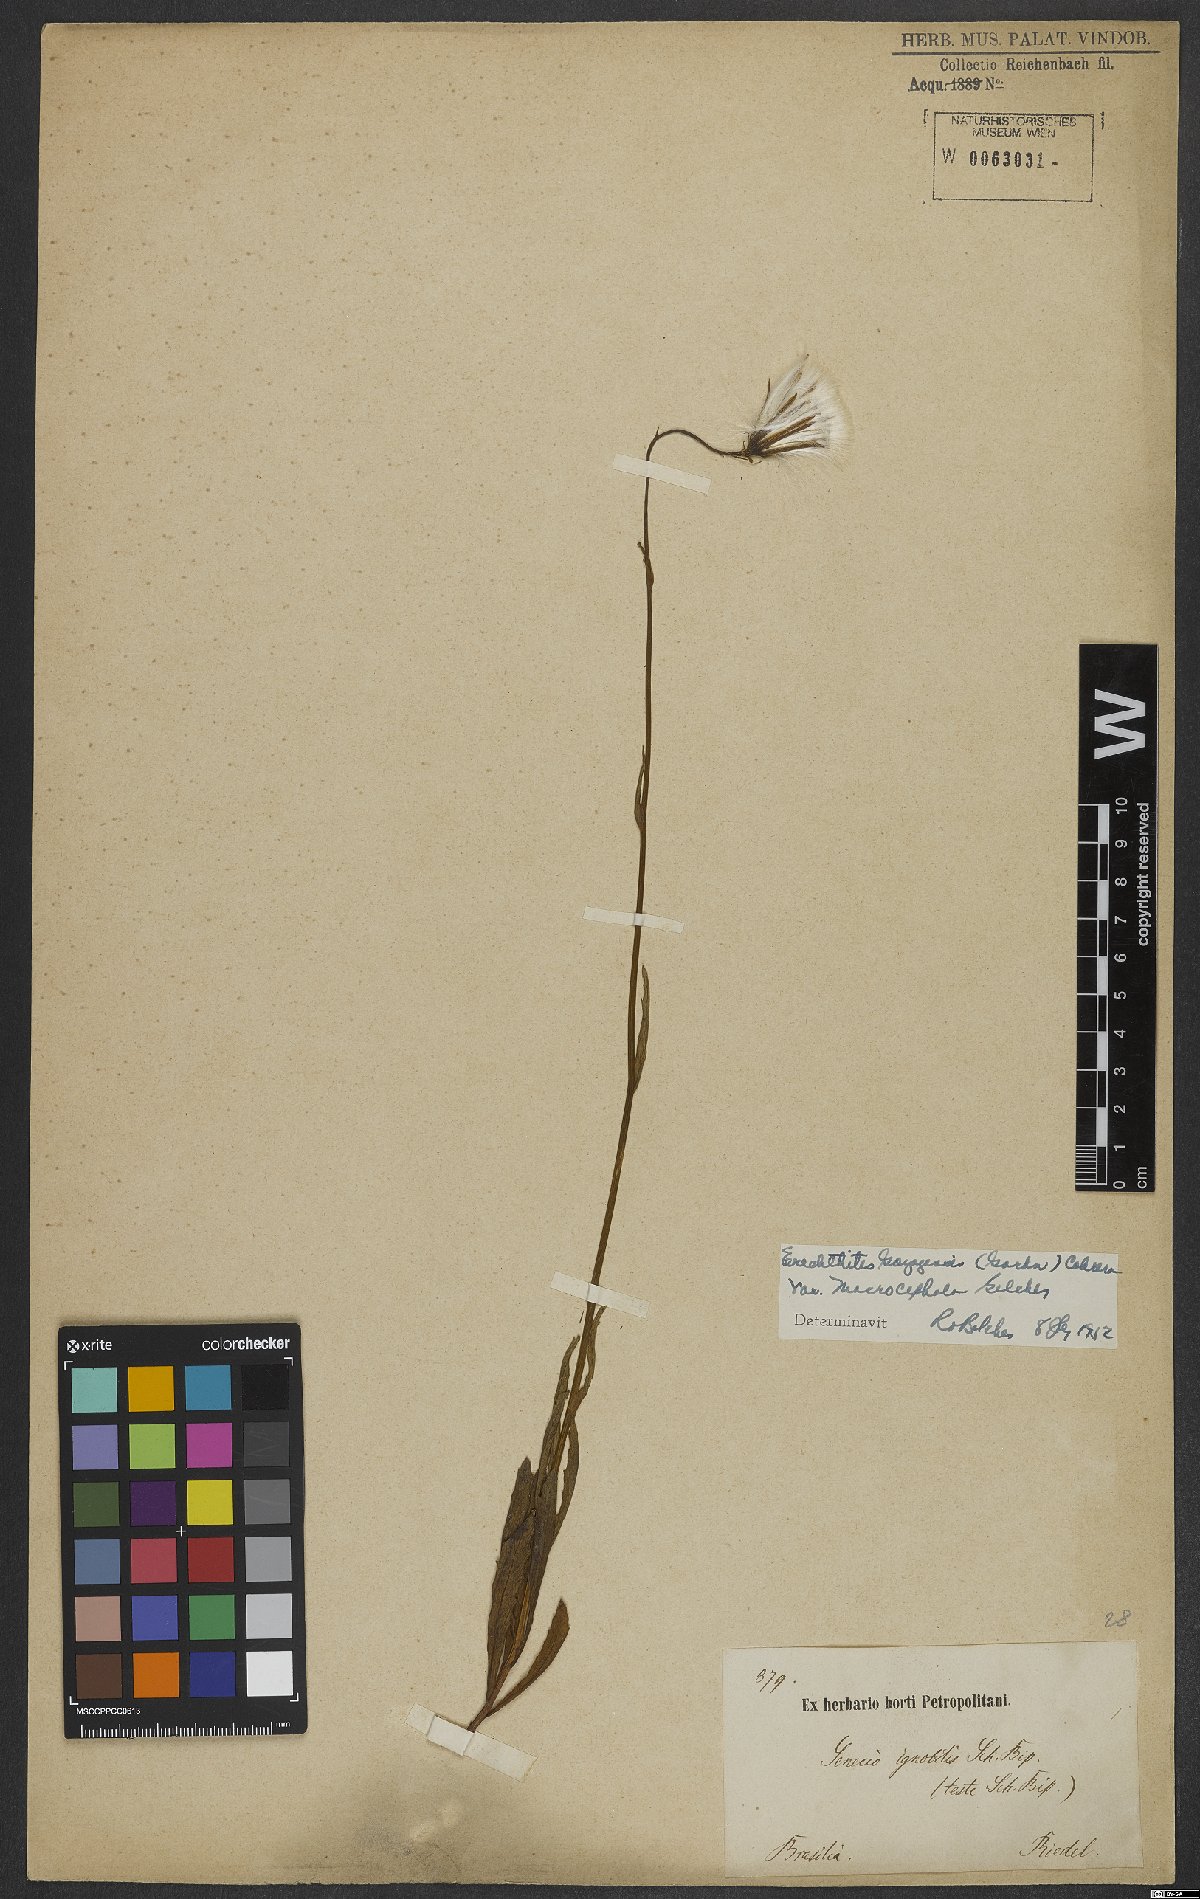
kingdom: Plantae
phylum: Tracheophyta
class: Magnoliopsida
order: Asterales
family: Asteraceae
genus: Erechtites
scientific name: Erechtites goyazensis
